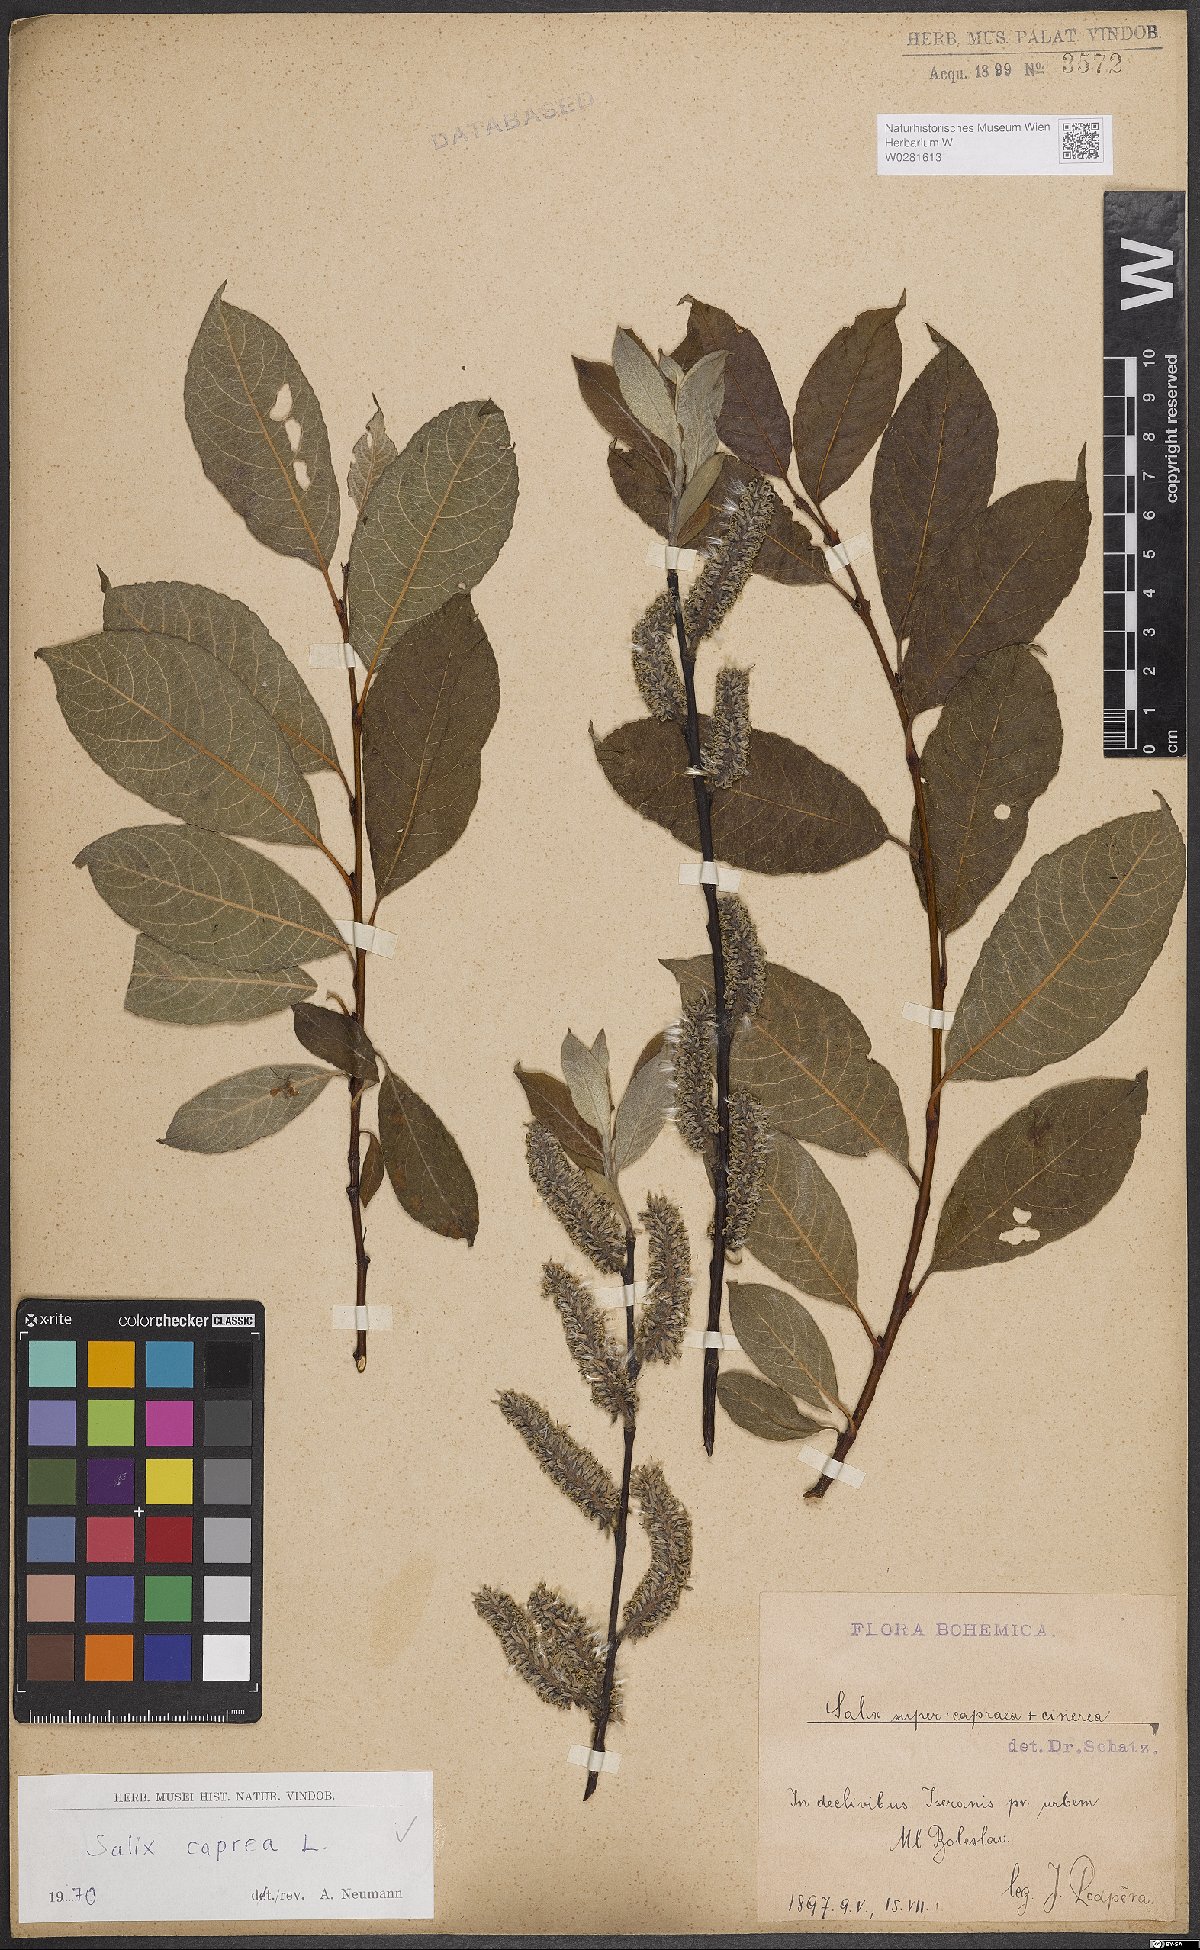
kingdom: Plantae
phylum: Tracheophyta
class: Magnoliopsida
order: Malpighiales
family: Salicaceae
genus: Salix
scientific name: Salix caprea
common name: Goat willow
